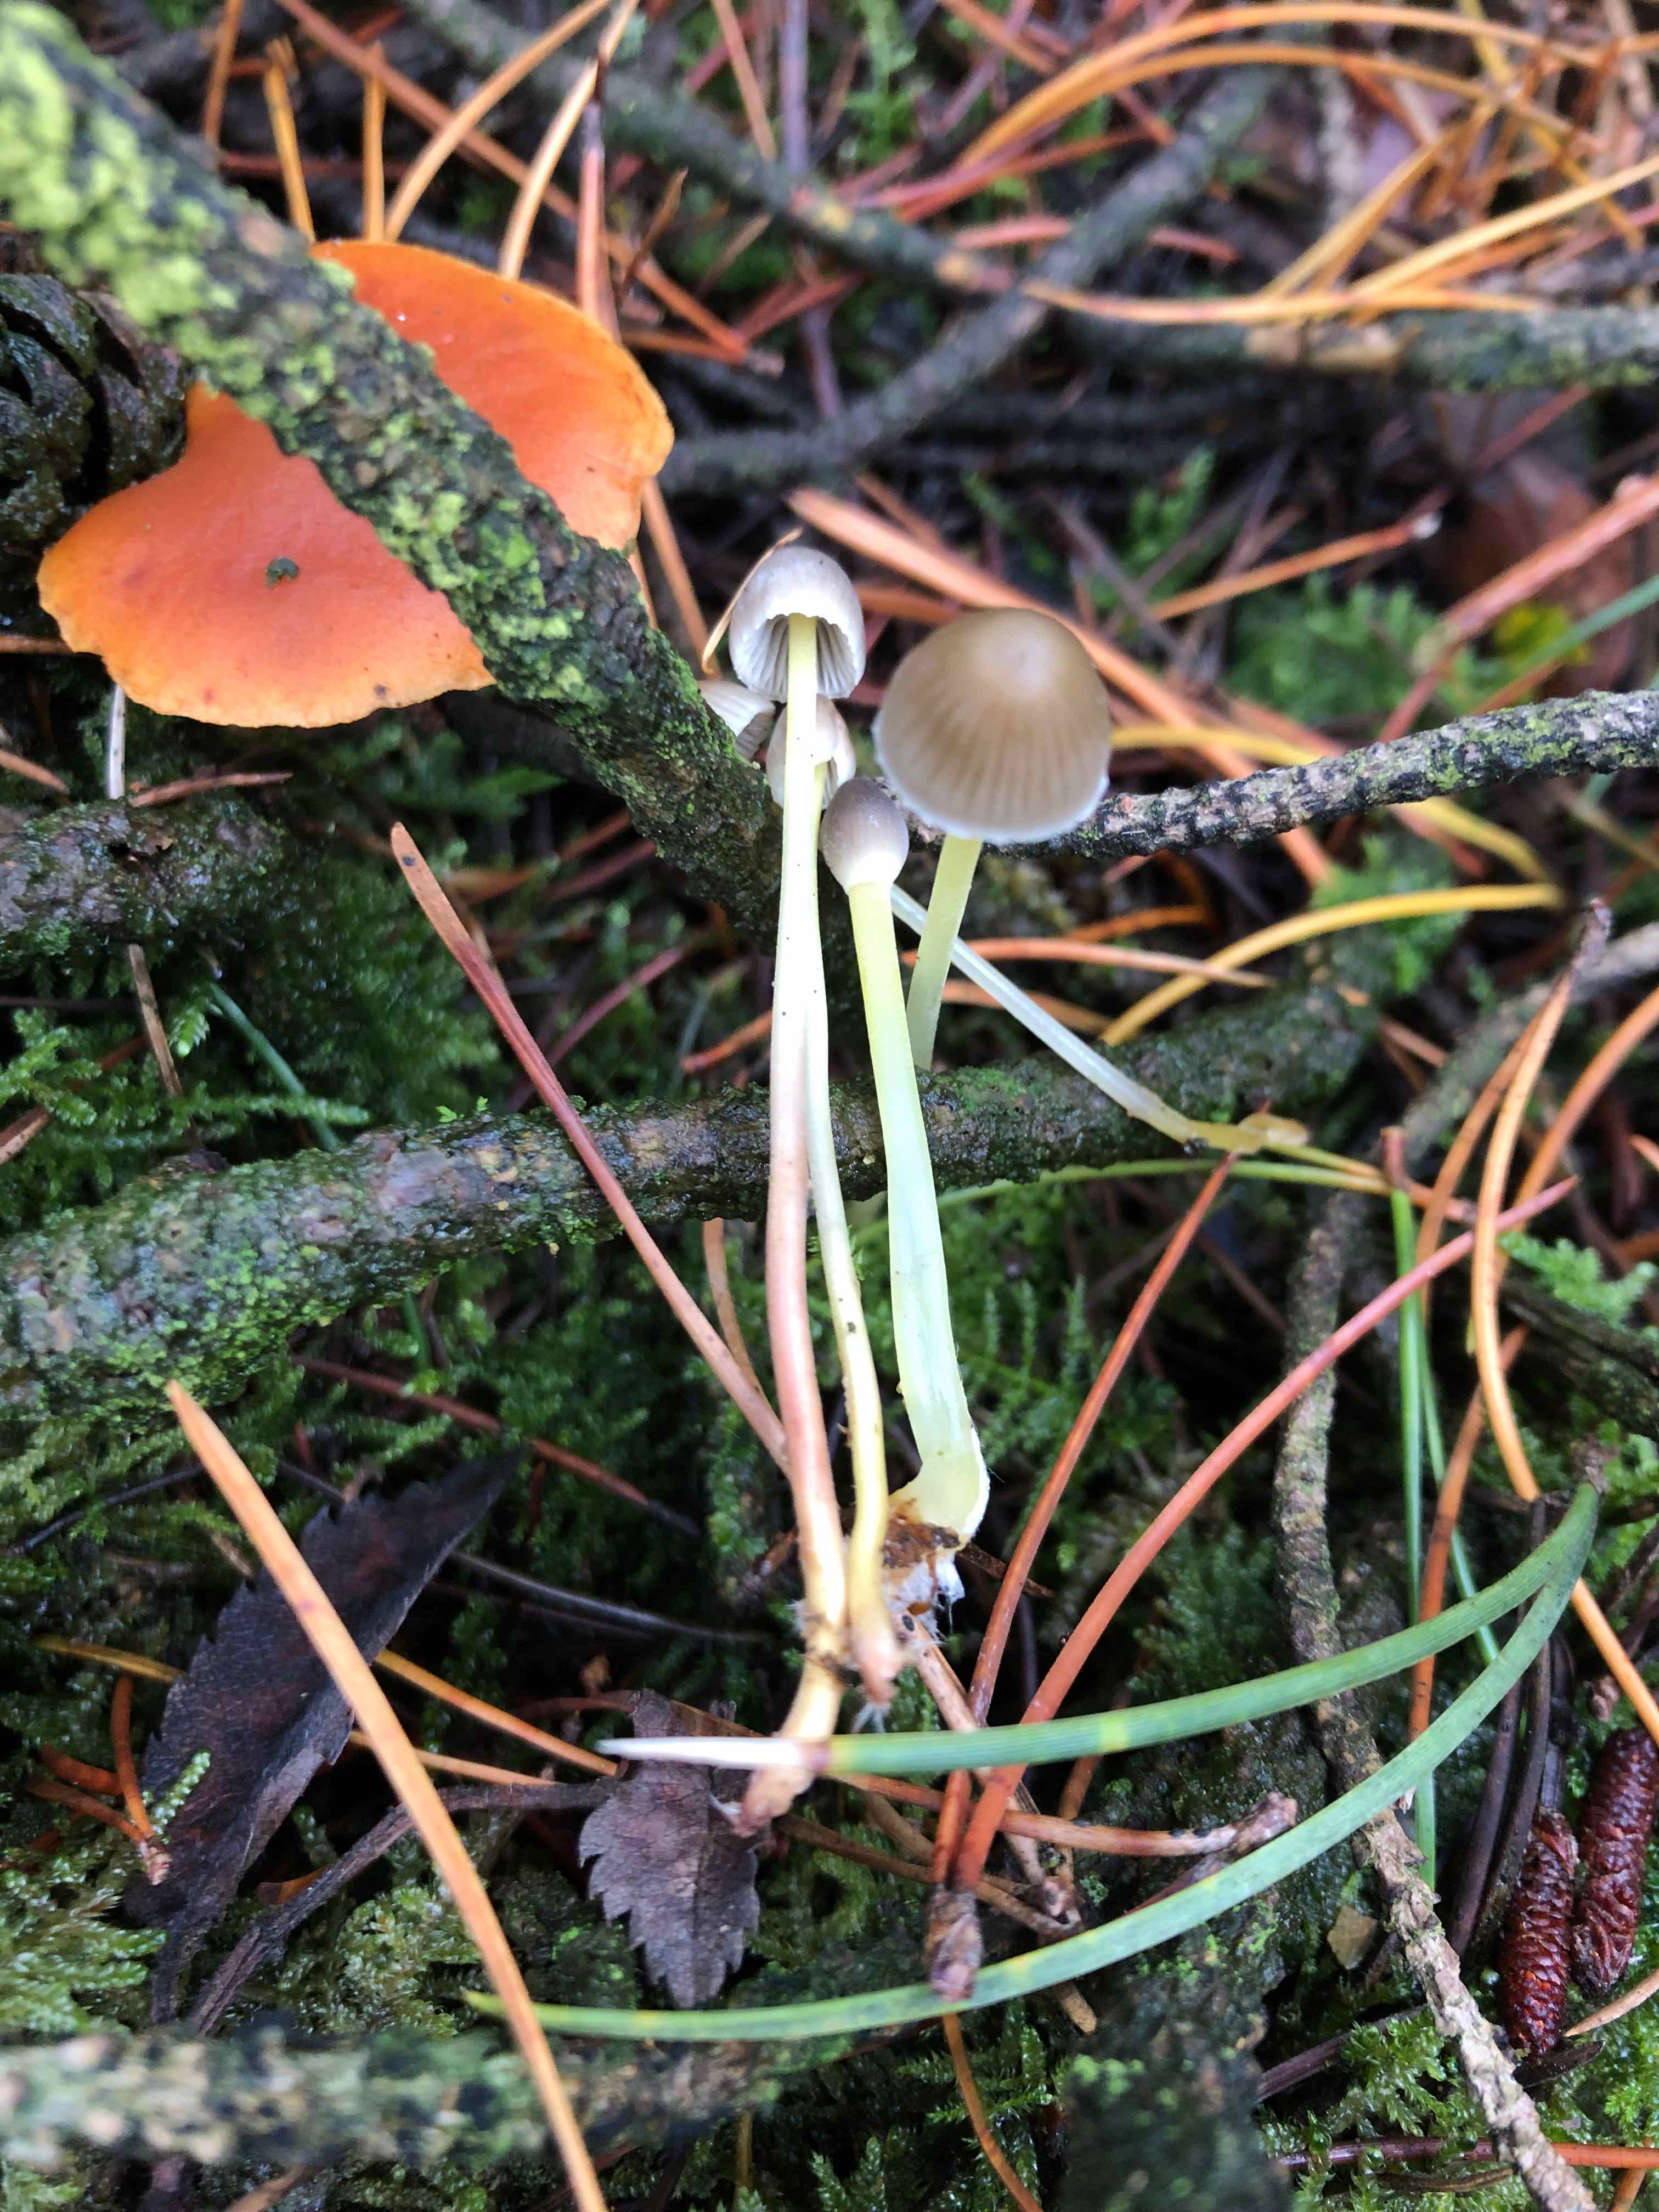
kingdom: Fungi
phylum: Basidiomycota
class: Agaricomycetes
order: Agaricales
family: Mycenaceae
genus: Mycena
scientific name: Mycena epipterygia
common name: gulstokket huesvamp
